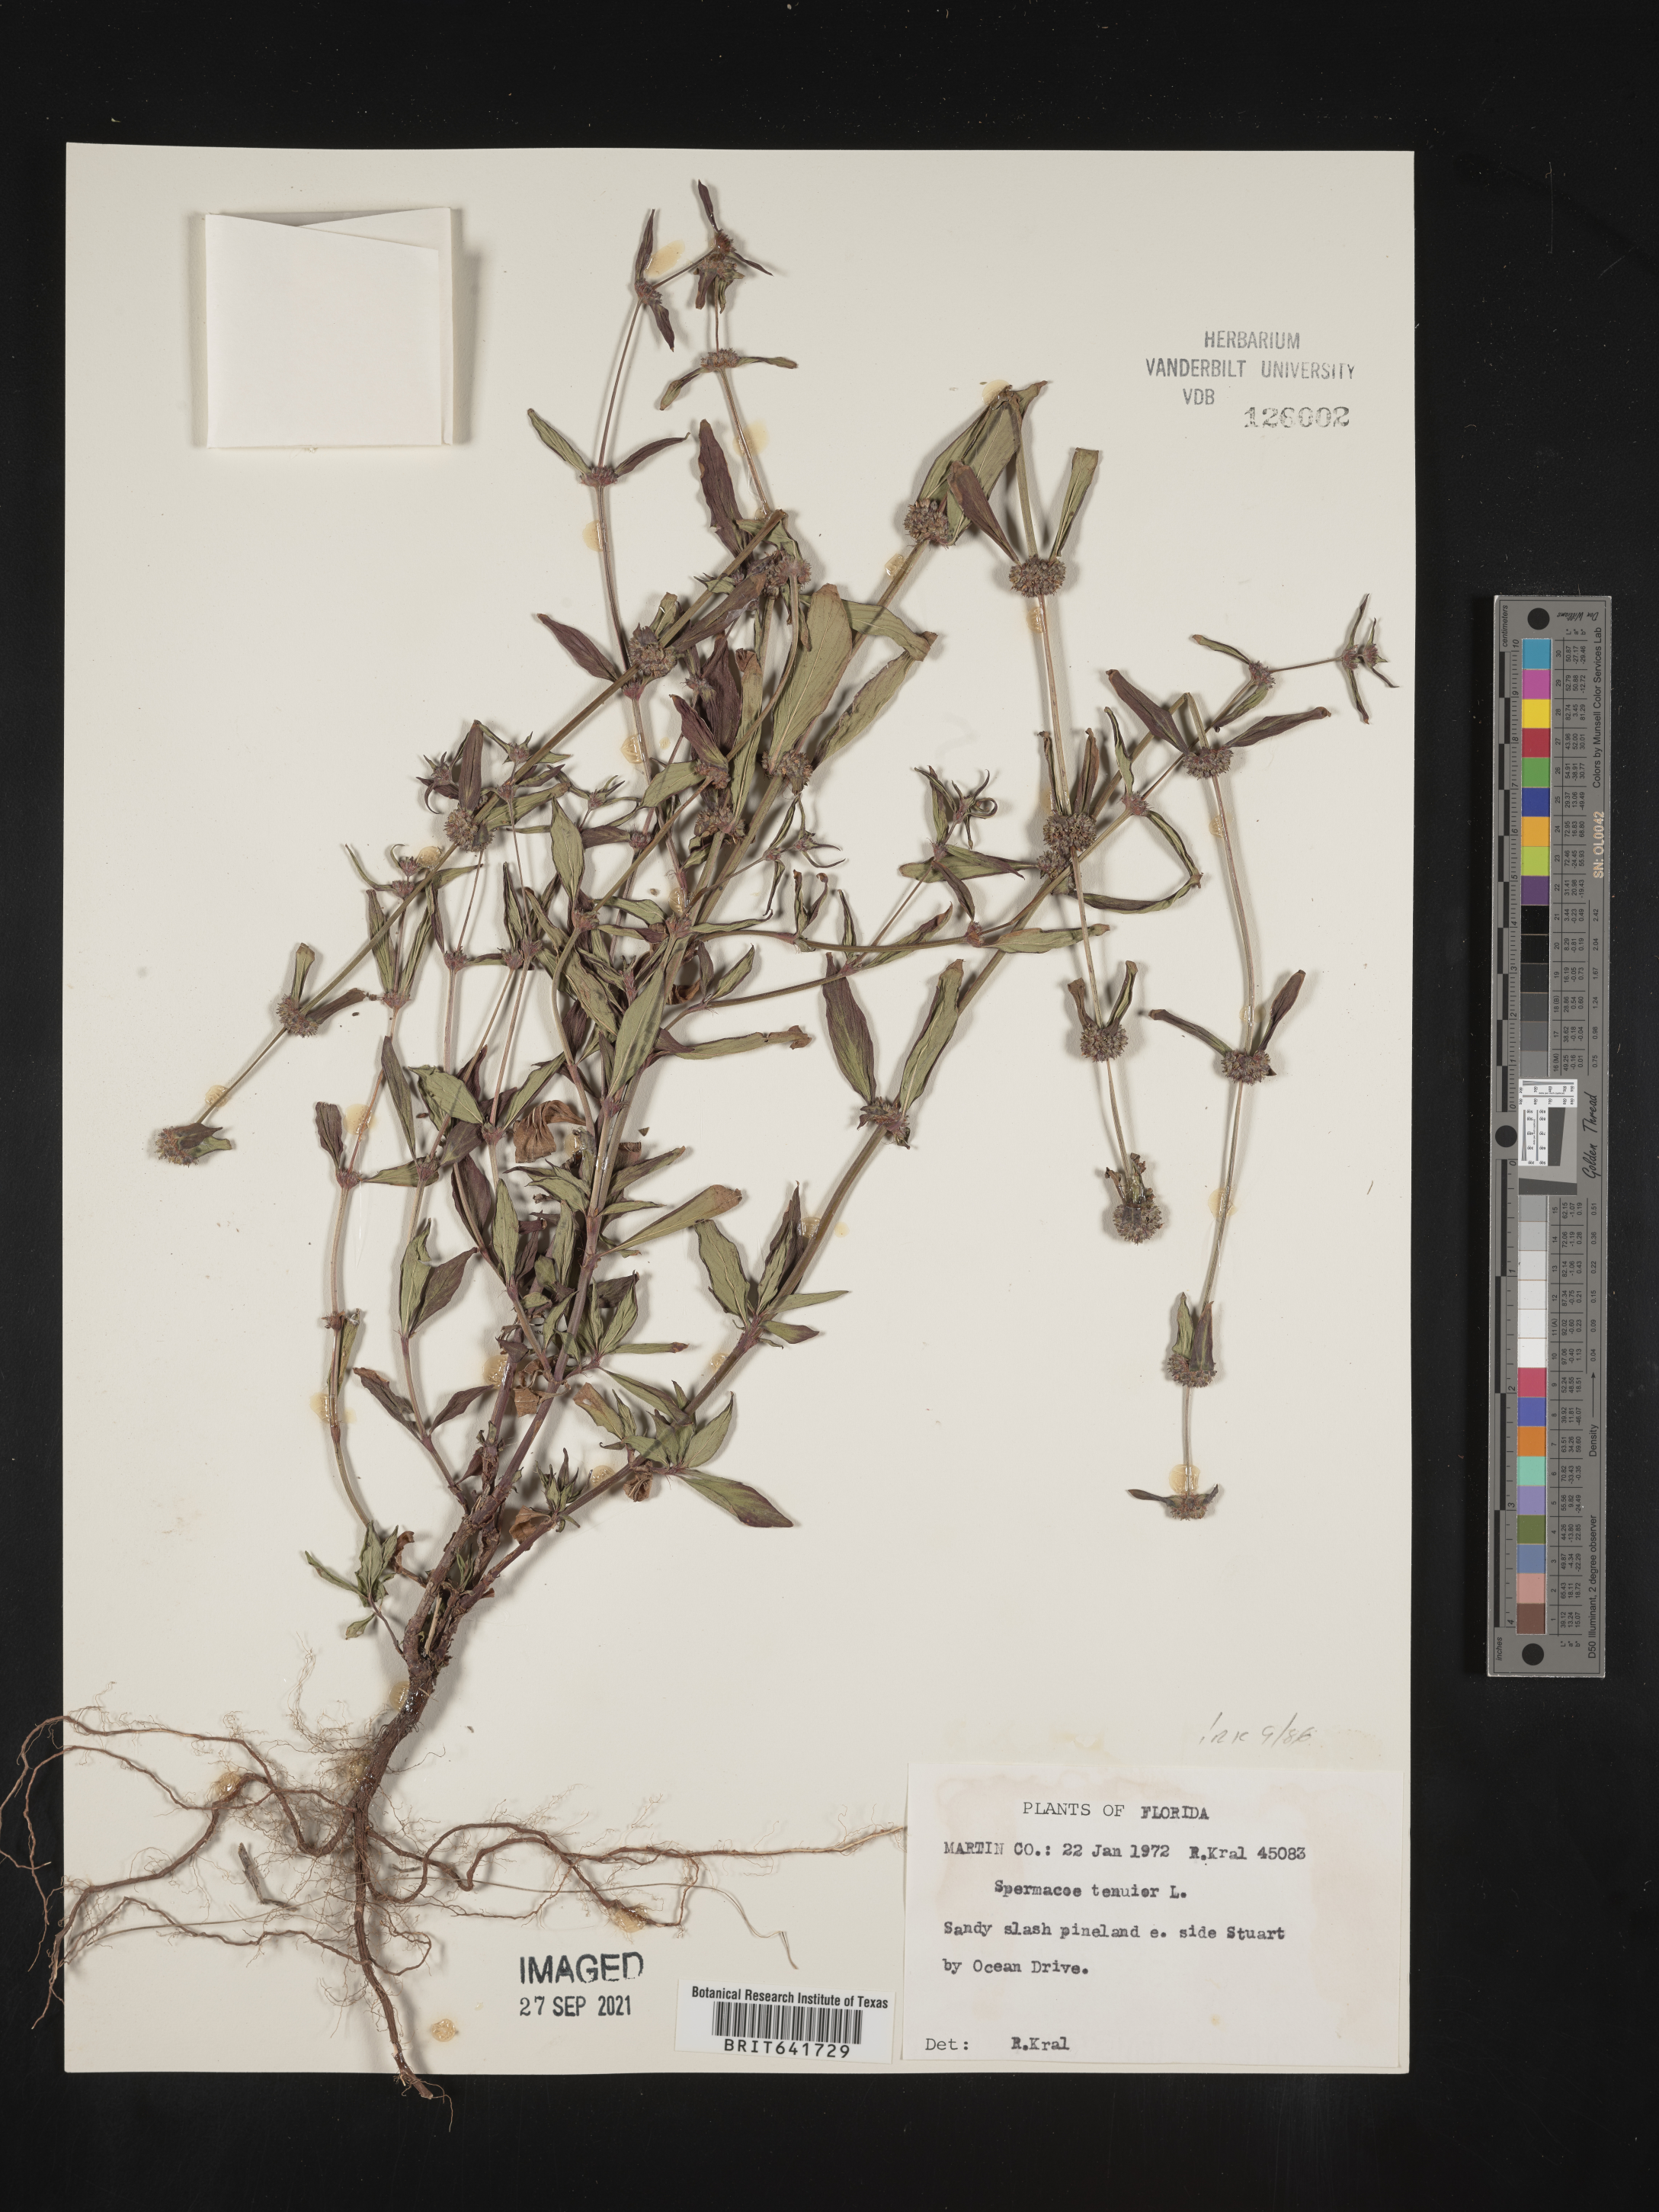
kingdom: Plantae
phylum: Tracheophyta
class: Magnoliopsida
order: Gentianales
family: Rubiaceae
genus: Spermacoce
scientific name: Spermacoce tenuior
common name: River false buttonweed
